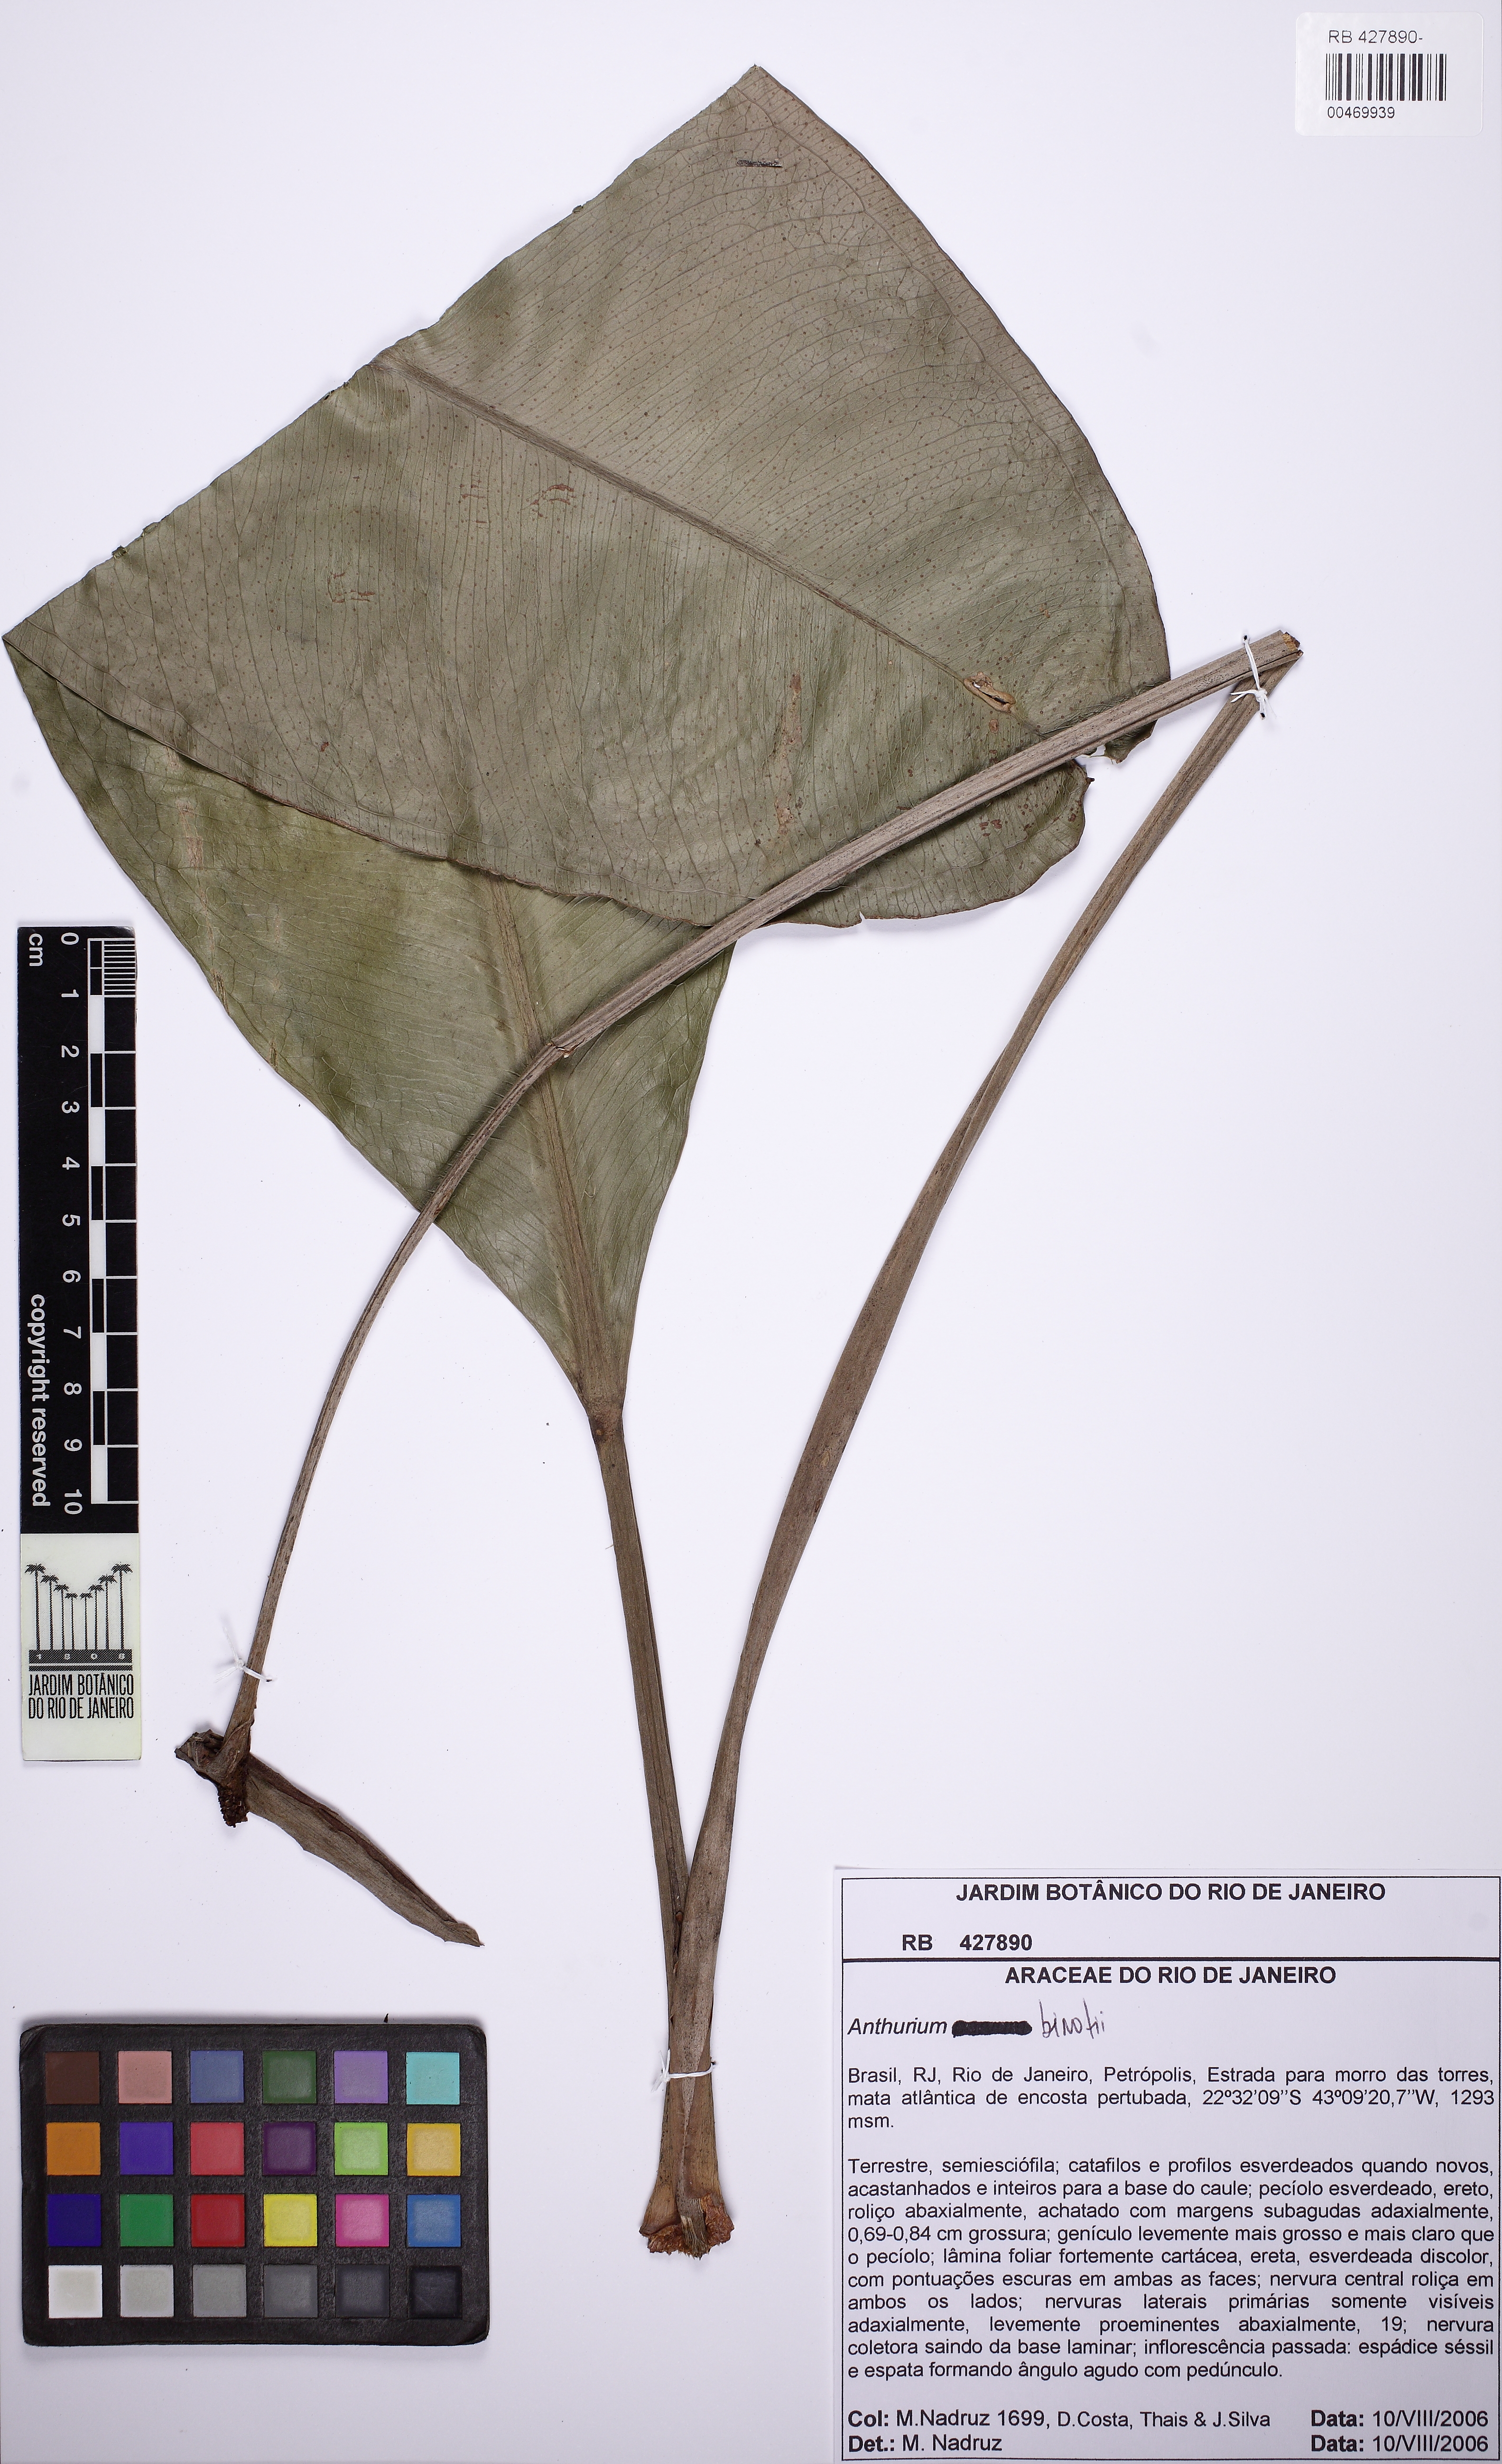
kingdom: Plantae
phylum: Tracheophyta
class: Liliopsida
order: Alismatales
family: Araceae
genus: Anthurium
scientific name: Anthurium binotii
